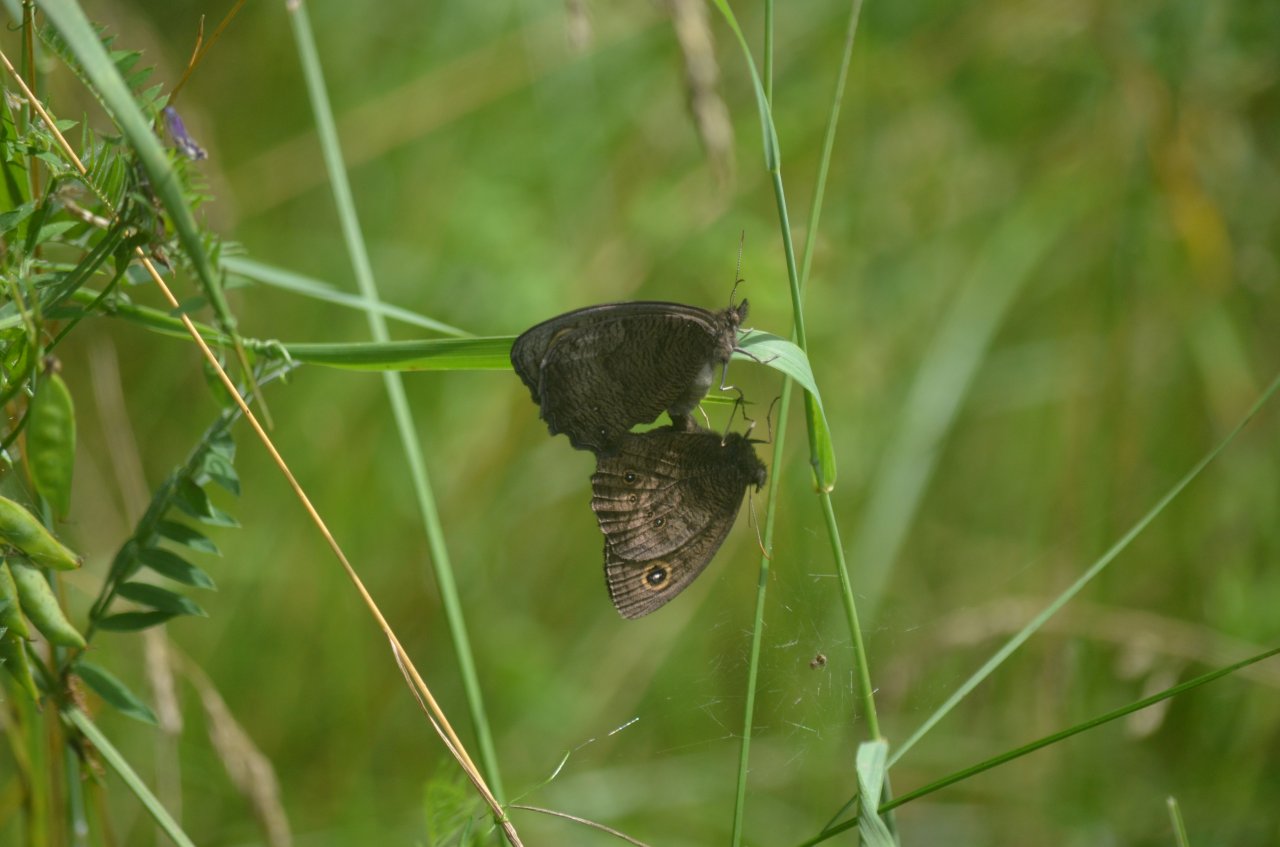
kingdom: Animalia
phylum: Arthropoda
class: Insecta
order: Lepidoptera
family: Nymphalidae
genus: Cercyonis
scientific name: Cercyonis pegala
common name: Common Wood-Nymph
